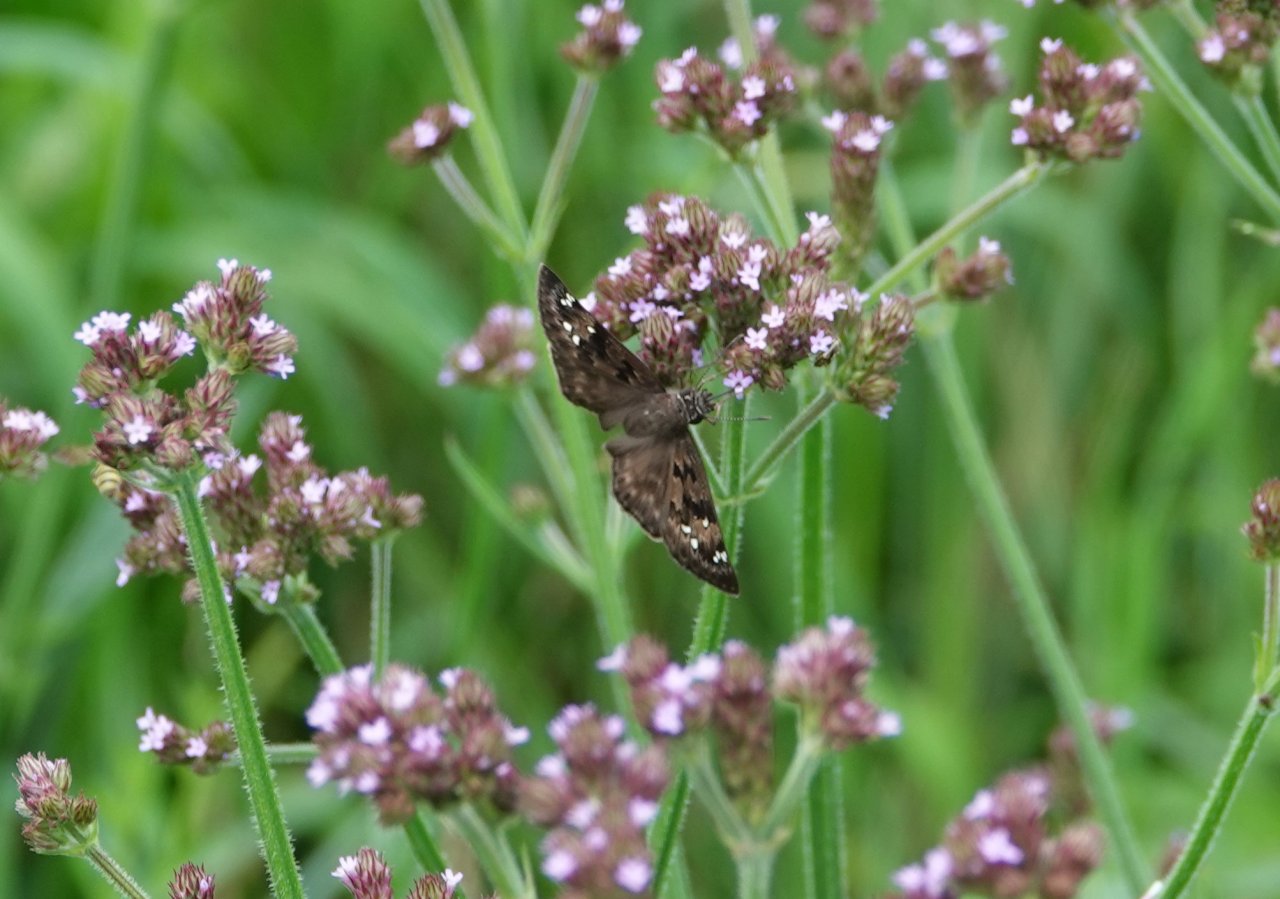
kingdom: Animalia
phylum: Arthropoda
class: Insecta
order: Lepidoptera
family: Hesperiidae
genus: Gesta
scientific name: Gesta
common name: Horace's Duskywing
